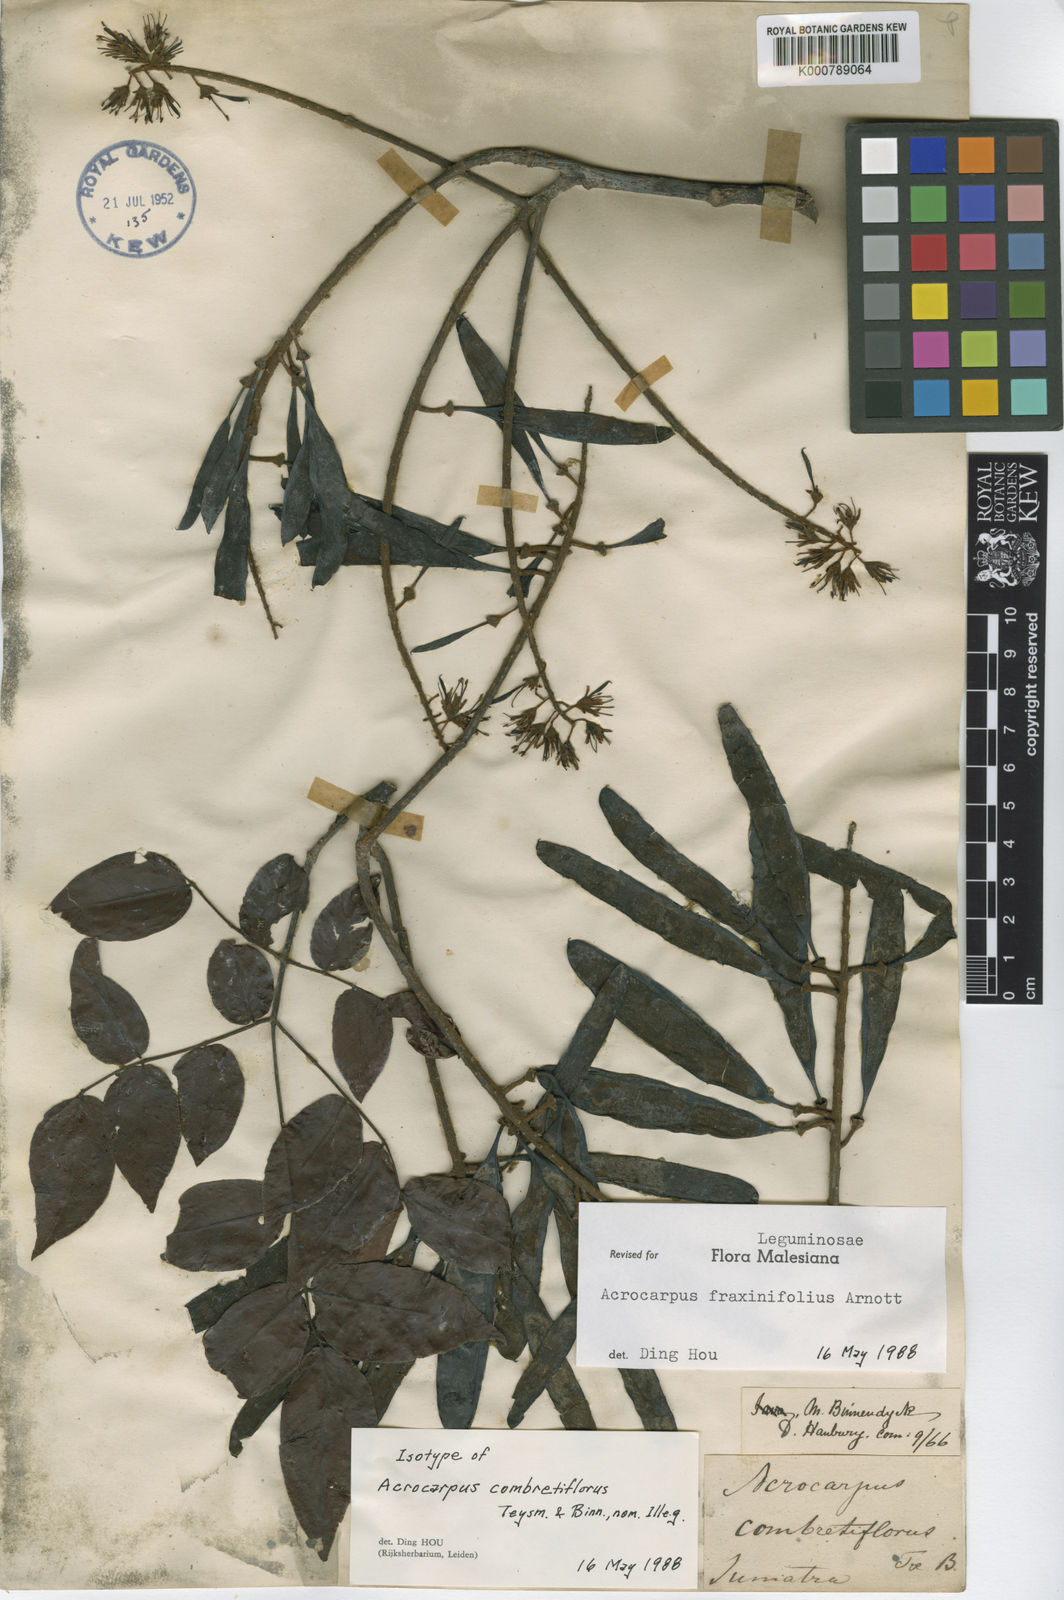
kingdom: Plantae
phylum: Tracheophyta
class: Magnoliopsida
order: Fabales
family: Fabaceae
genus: Acrocarpus
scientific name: Acrocarpus fraxinifolius
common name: Kenya coffeeshade
